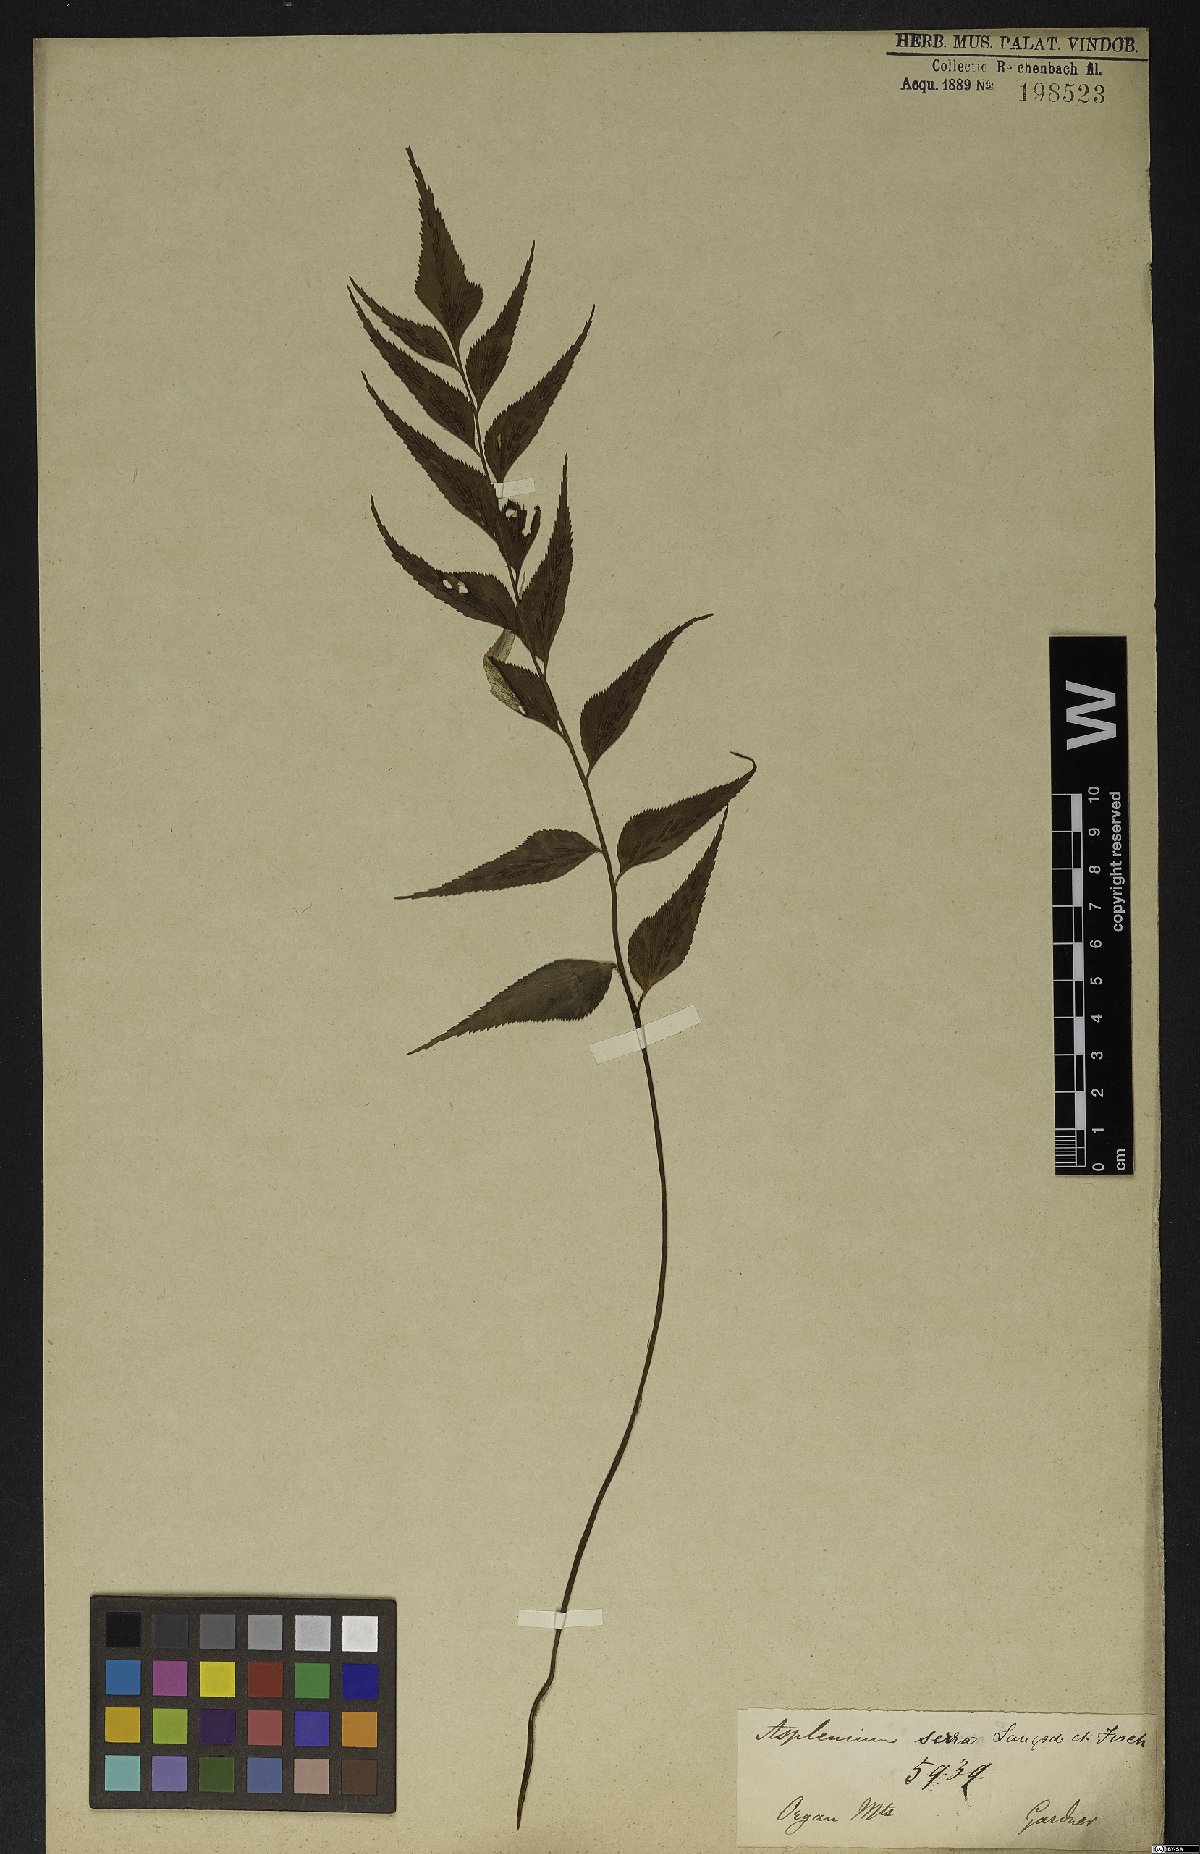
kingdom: Plantae
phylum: Tracheophyta
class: Polypodiopsida
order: Polypodiales
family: Aspleniaceae
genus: Asplenium
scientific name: Asplenium serra
